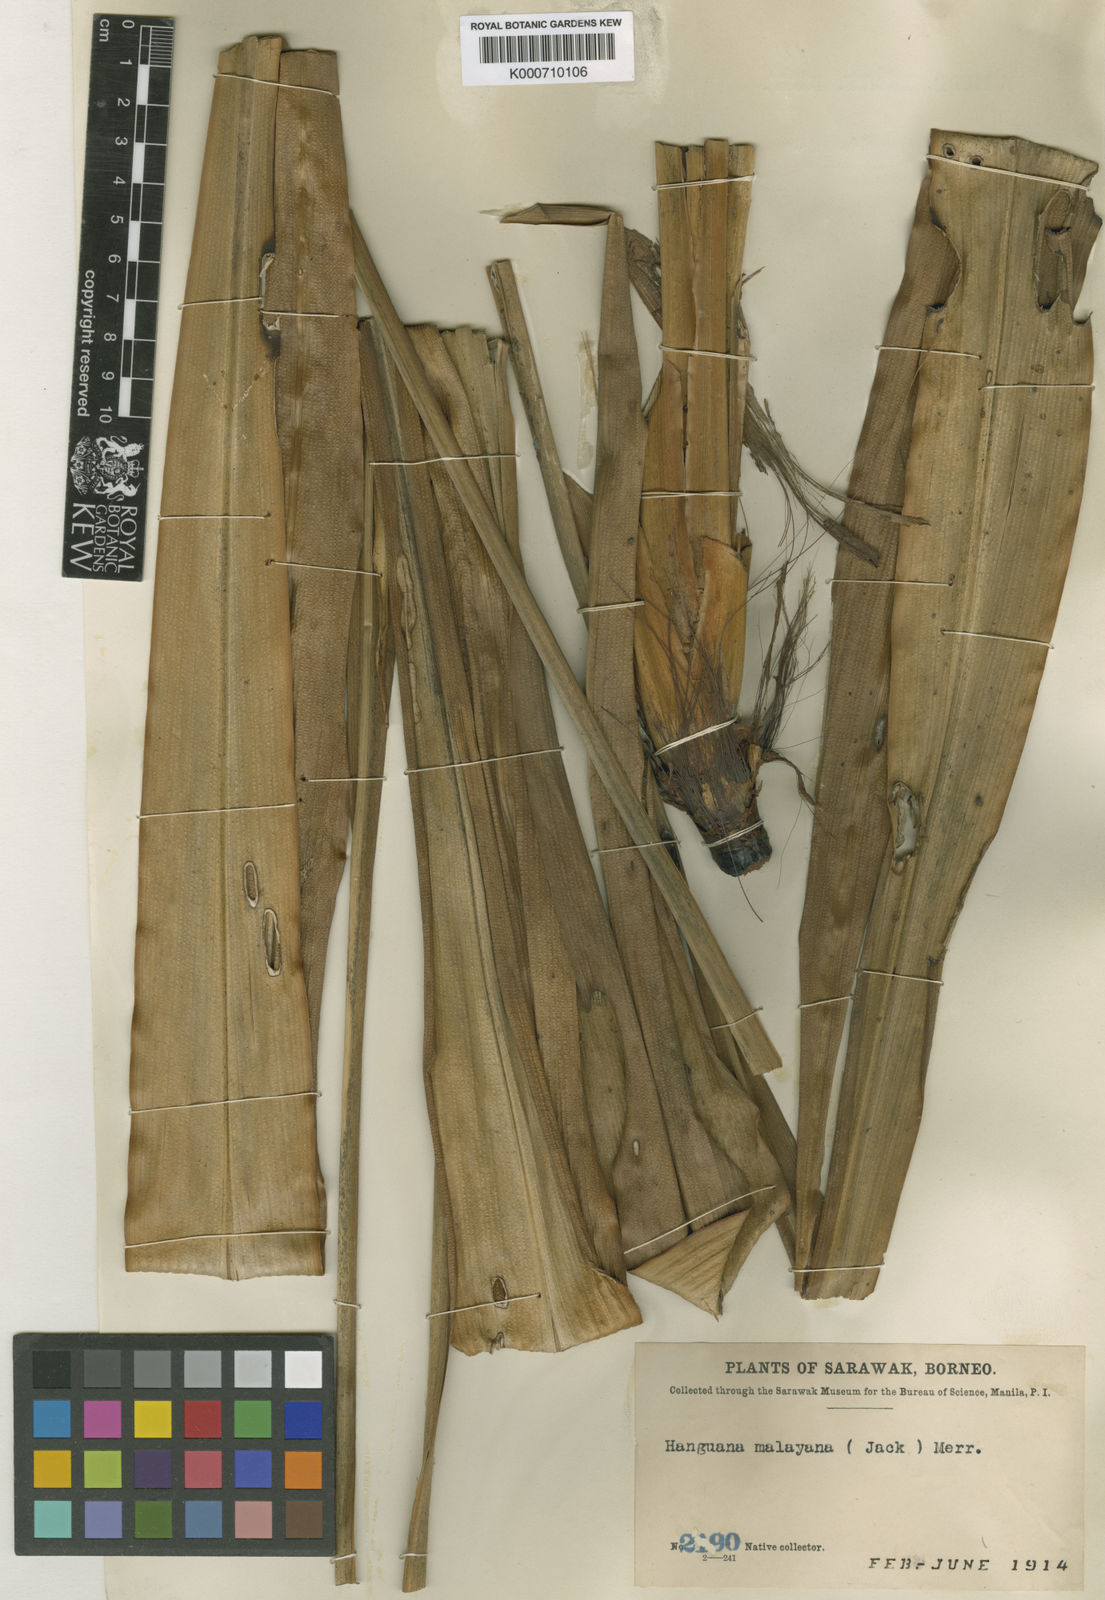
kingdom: Plantae
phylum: Tracheophyta
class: Liliopsida
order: Commelinales
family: Hanguanaceae
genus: Hanguana
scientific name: Hanguana malayana
